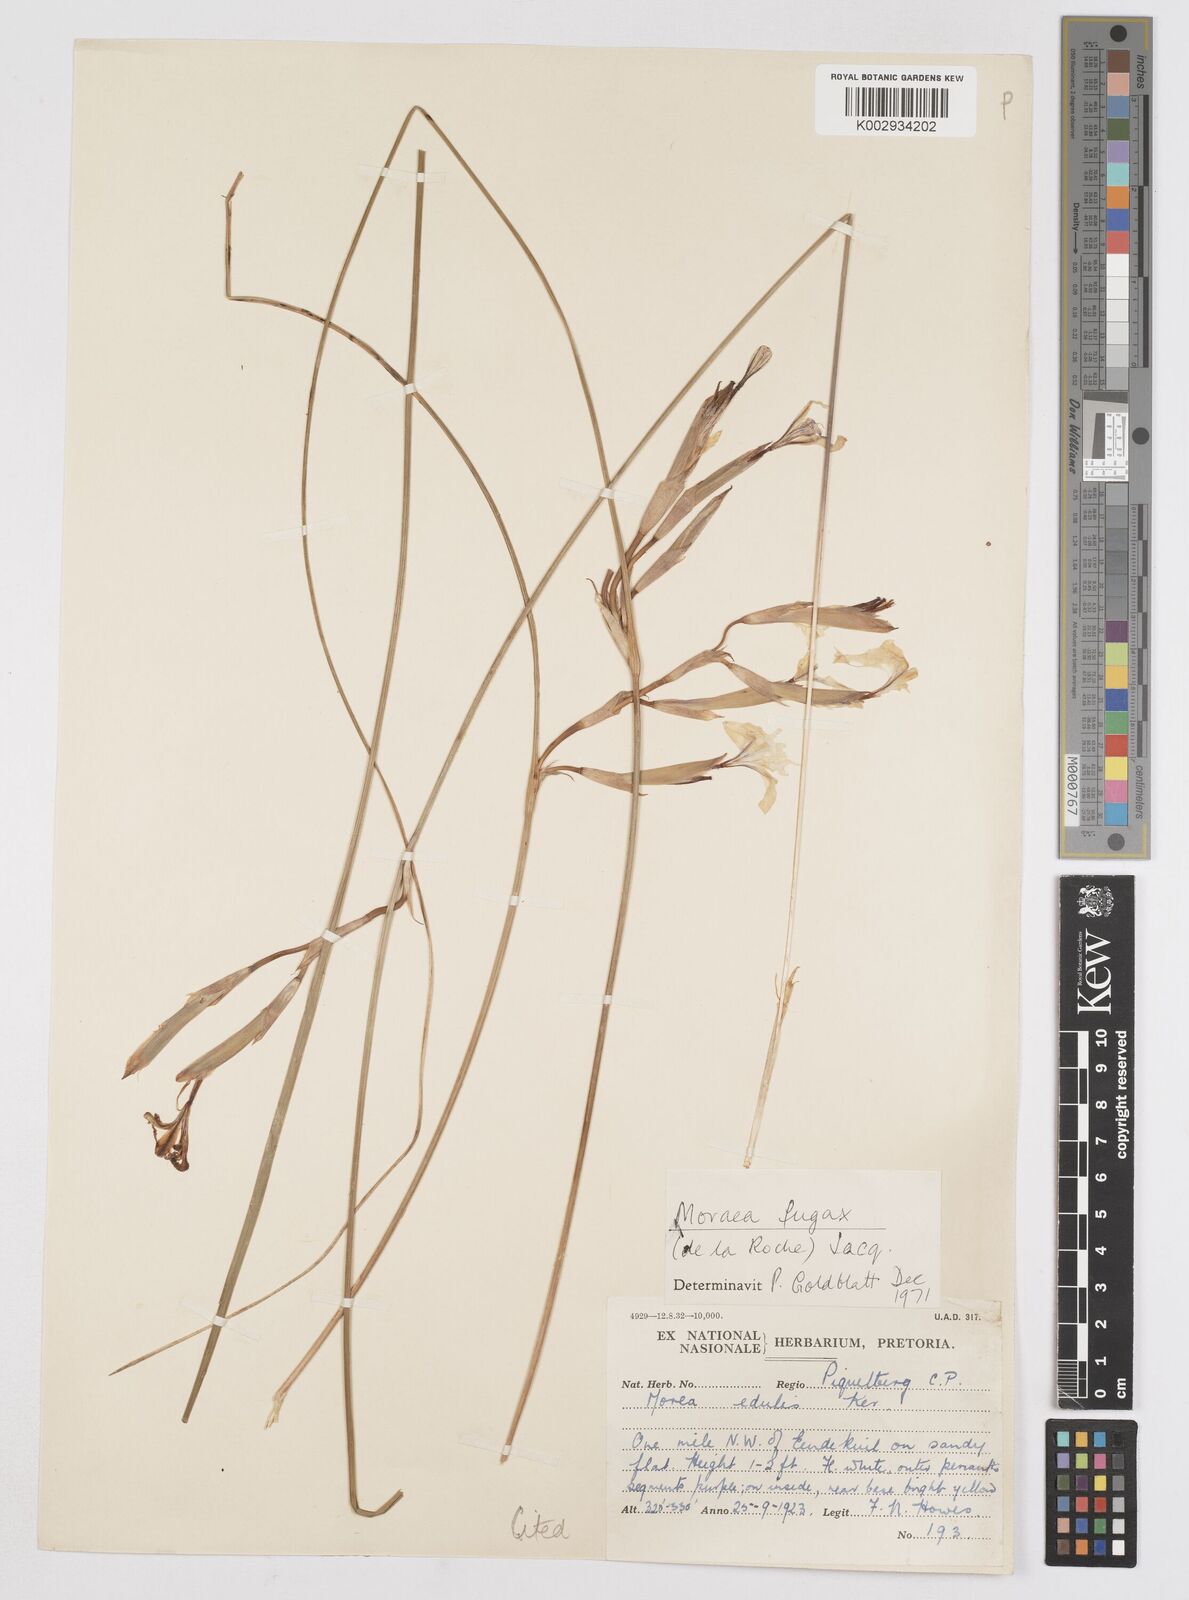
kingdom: Plantae
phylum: Tracheophyta
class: Liliopsida
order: Asparagales
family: Iridaceae
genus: Moraea
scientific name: Moraea fugax
